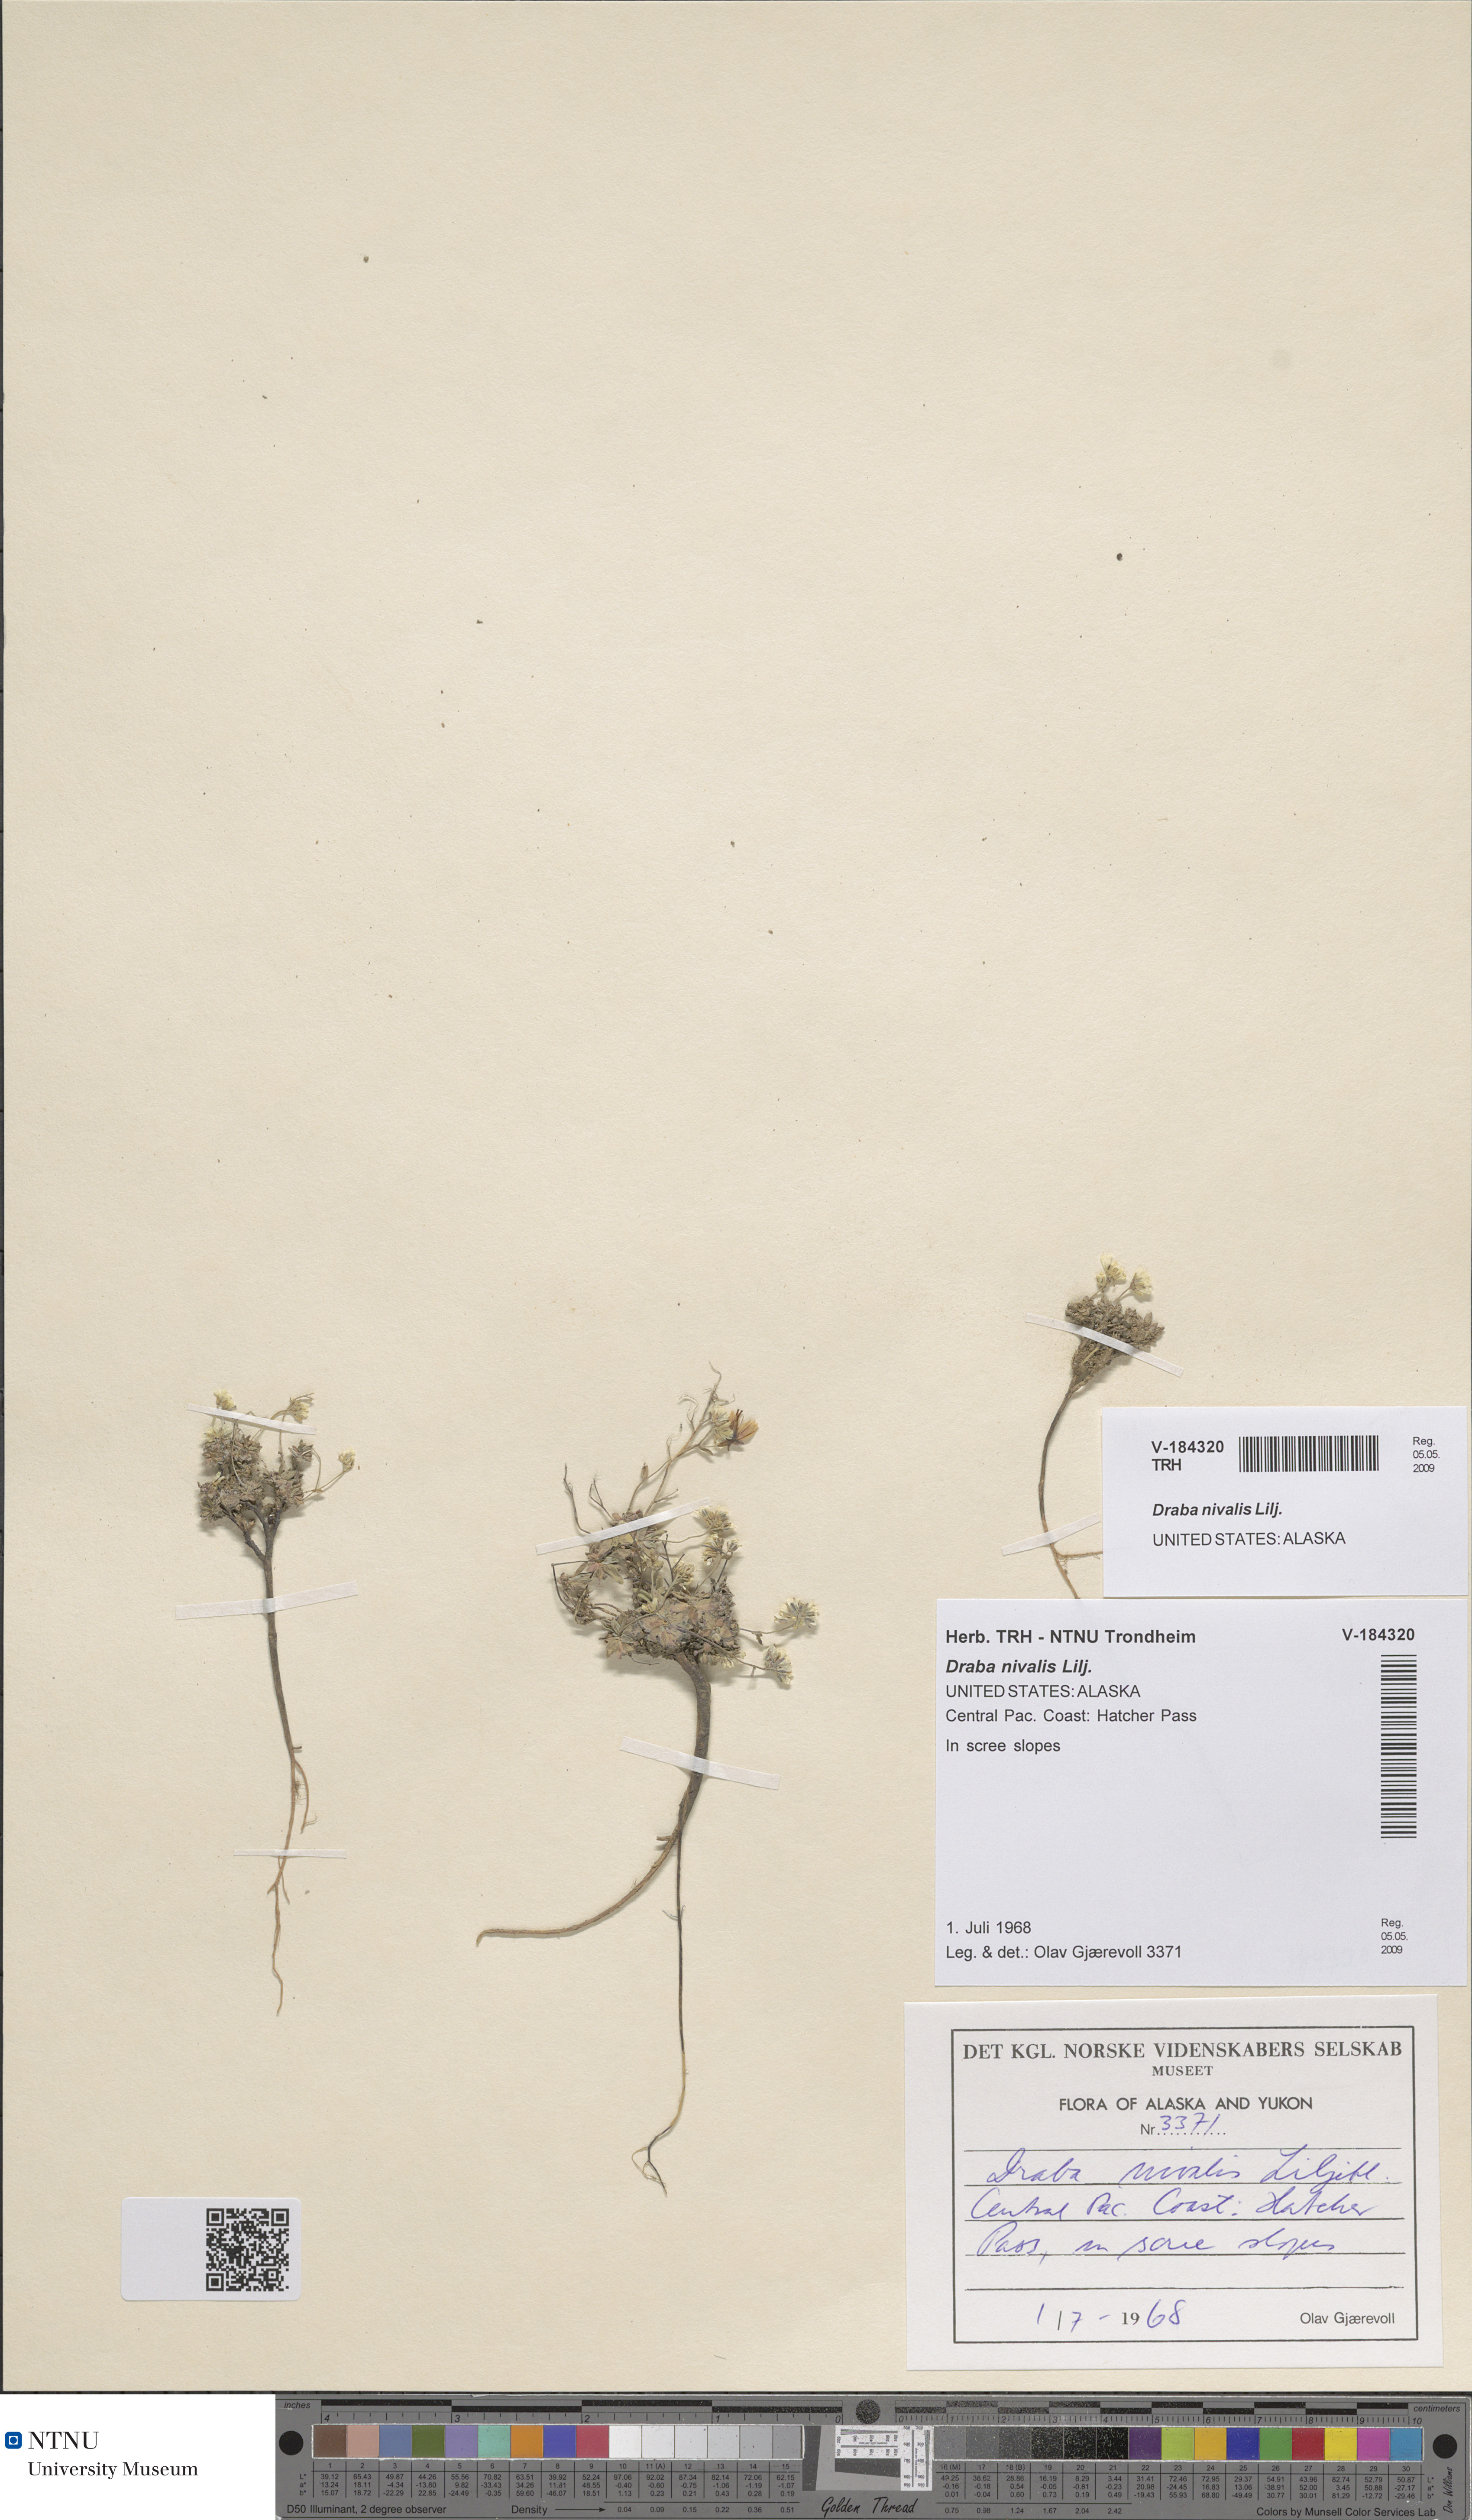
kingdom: Plantae
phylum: Tracheophyta
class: Magnoliopsida
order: Brassicales
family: Brassicaceae
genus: Draba
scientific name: Draba nivalis
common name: Snow draba
